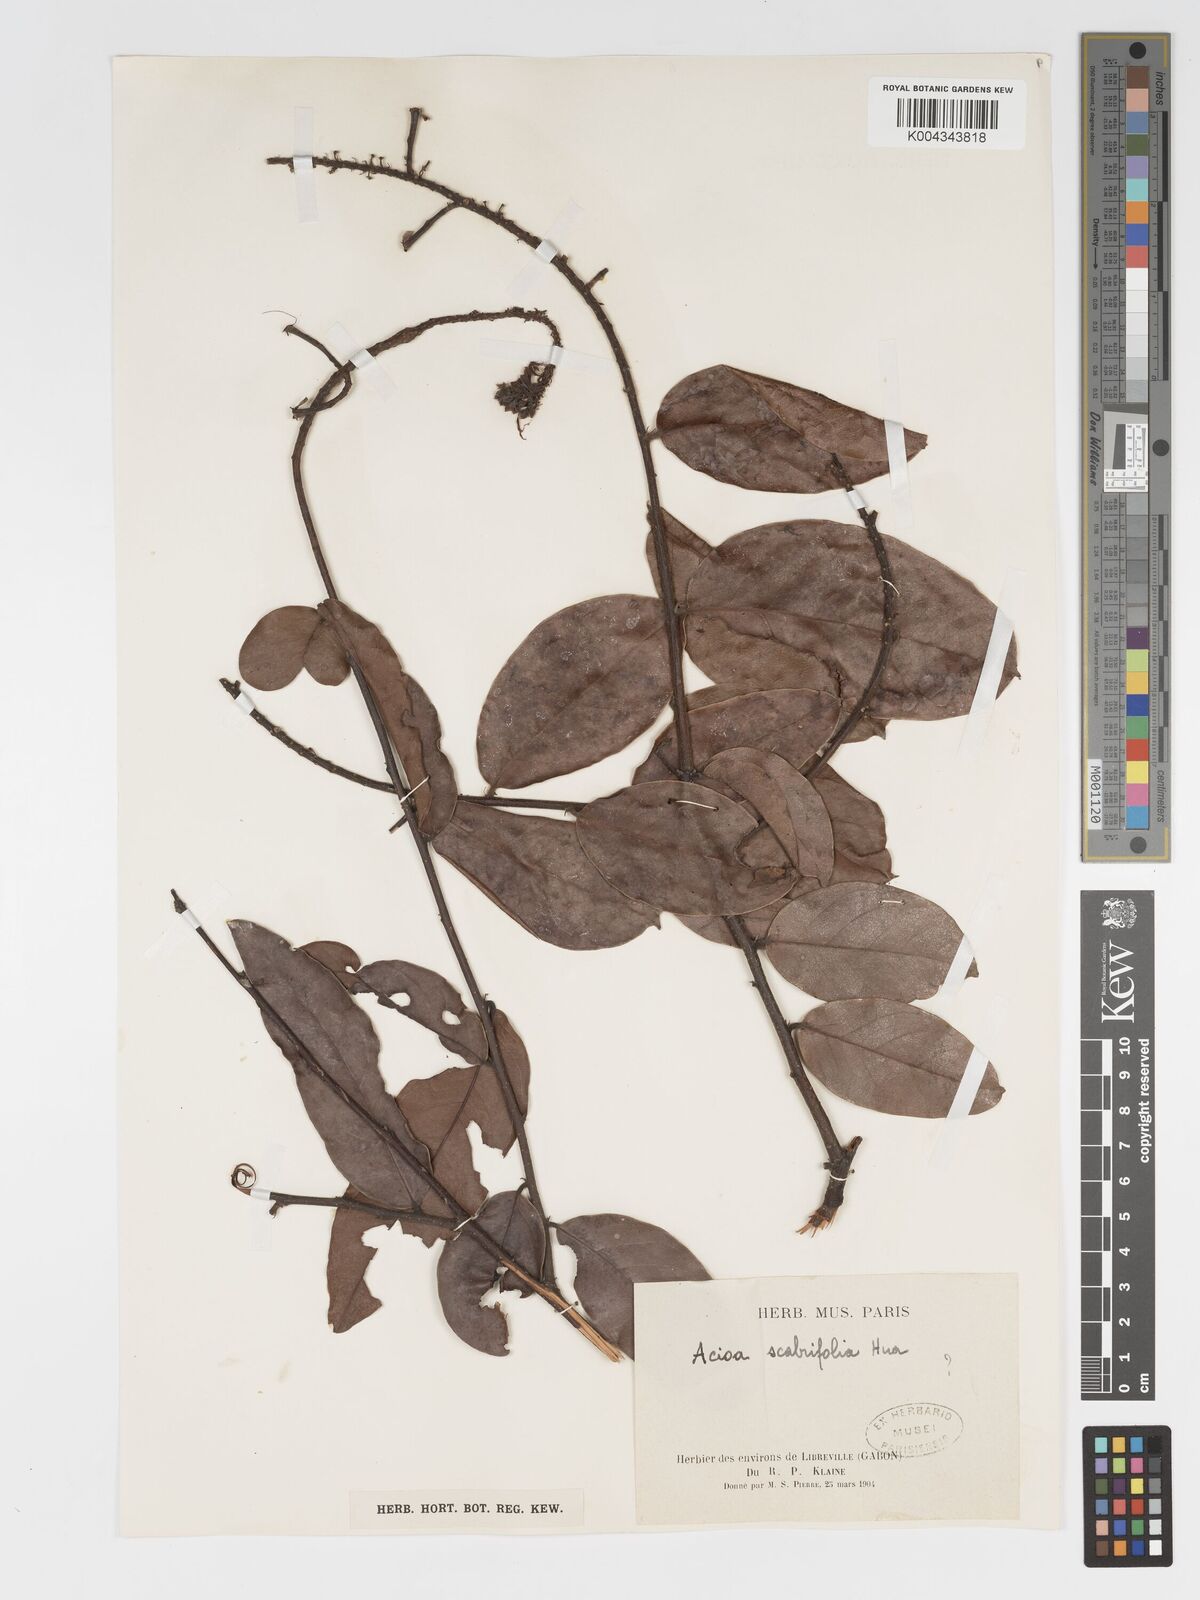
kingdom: Plantae
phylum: Tracheophyta
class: Magnoliopsida
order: Malpighiales
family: Chrysobalanaceae
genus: Dactyladenia
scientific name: Dactyladenia scabrifolia
